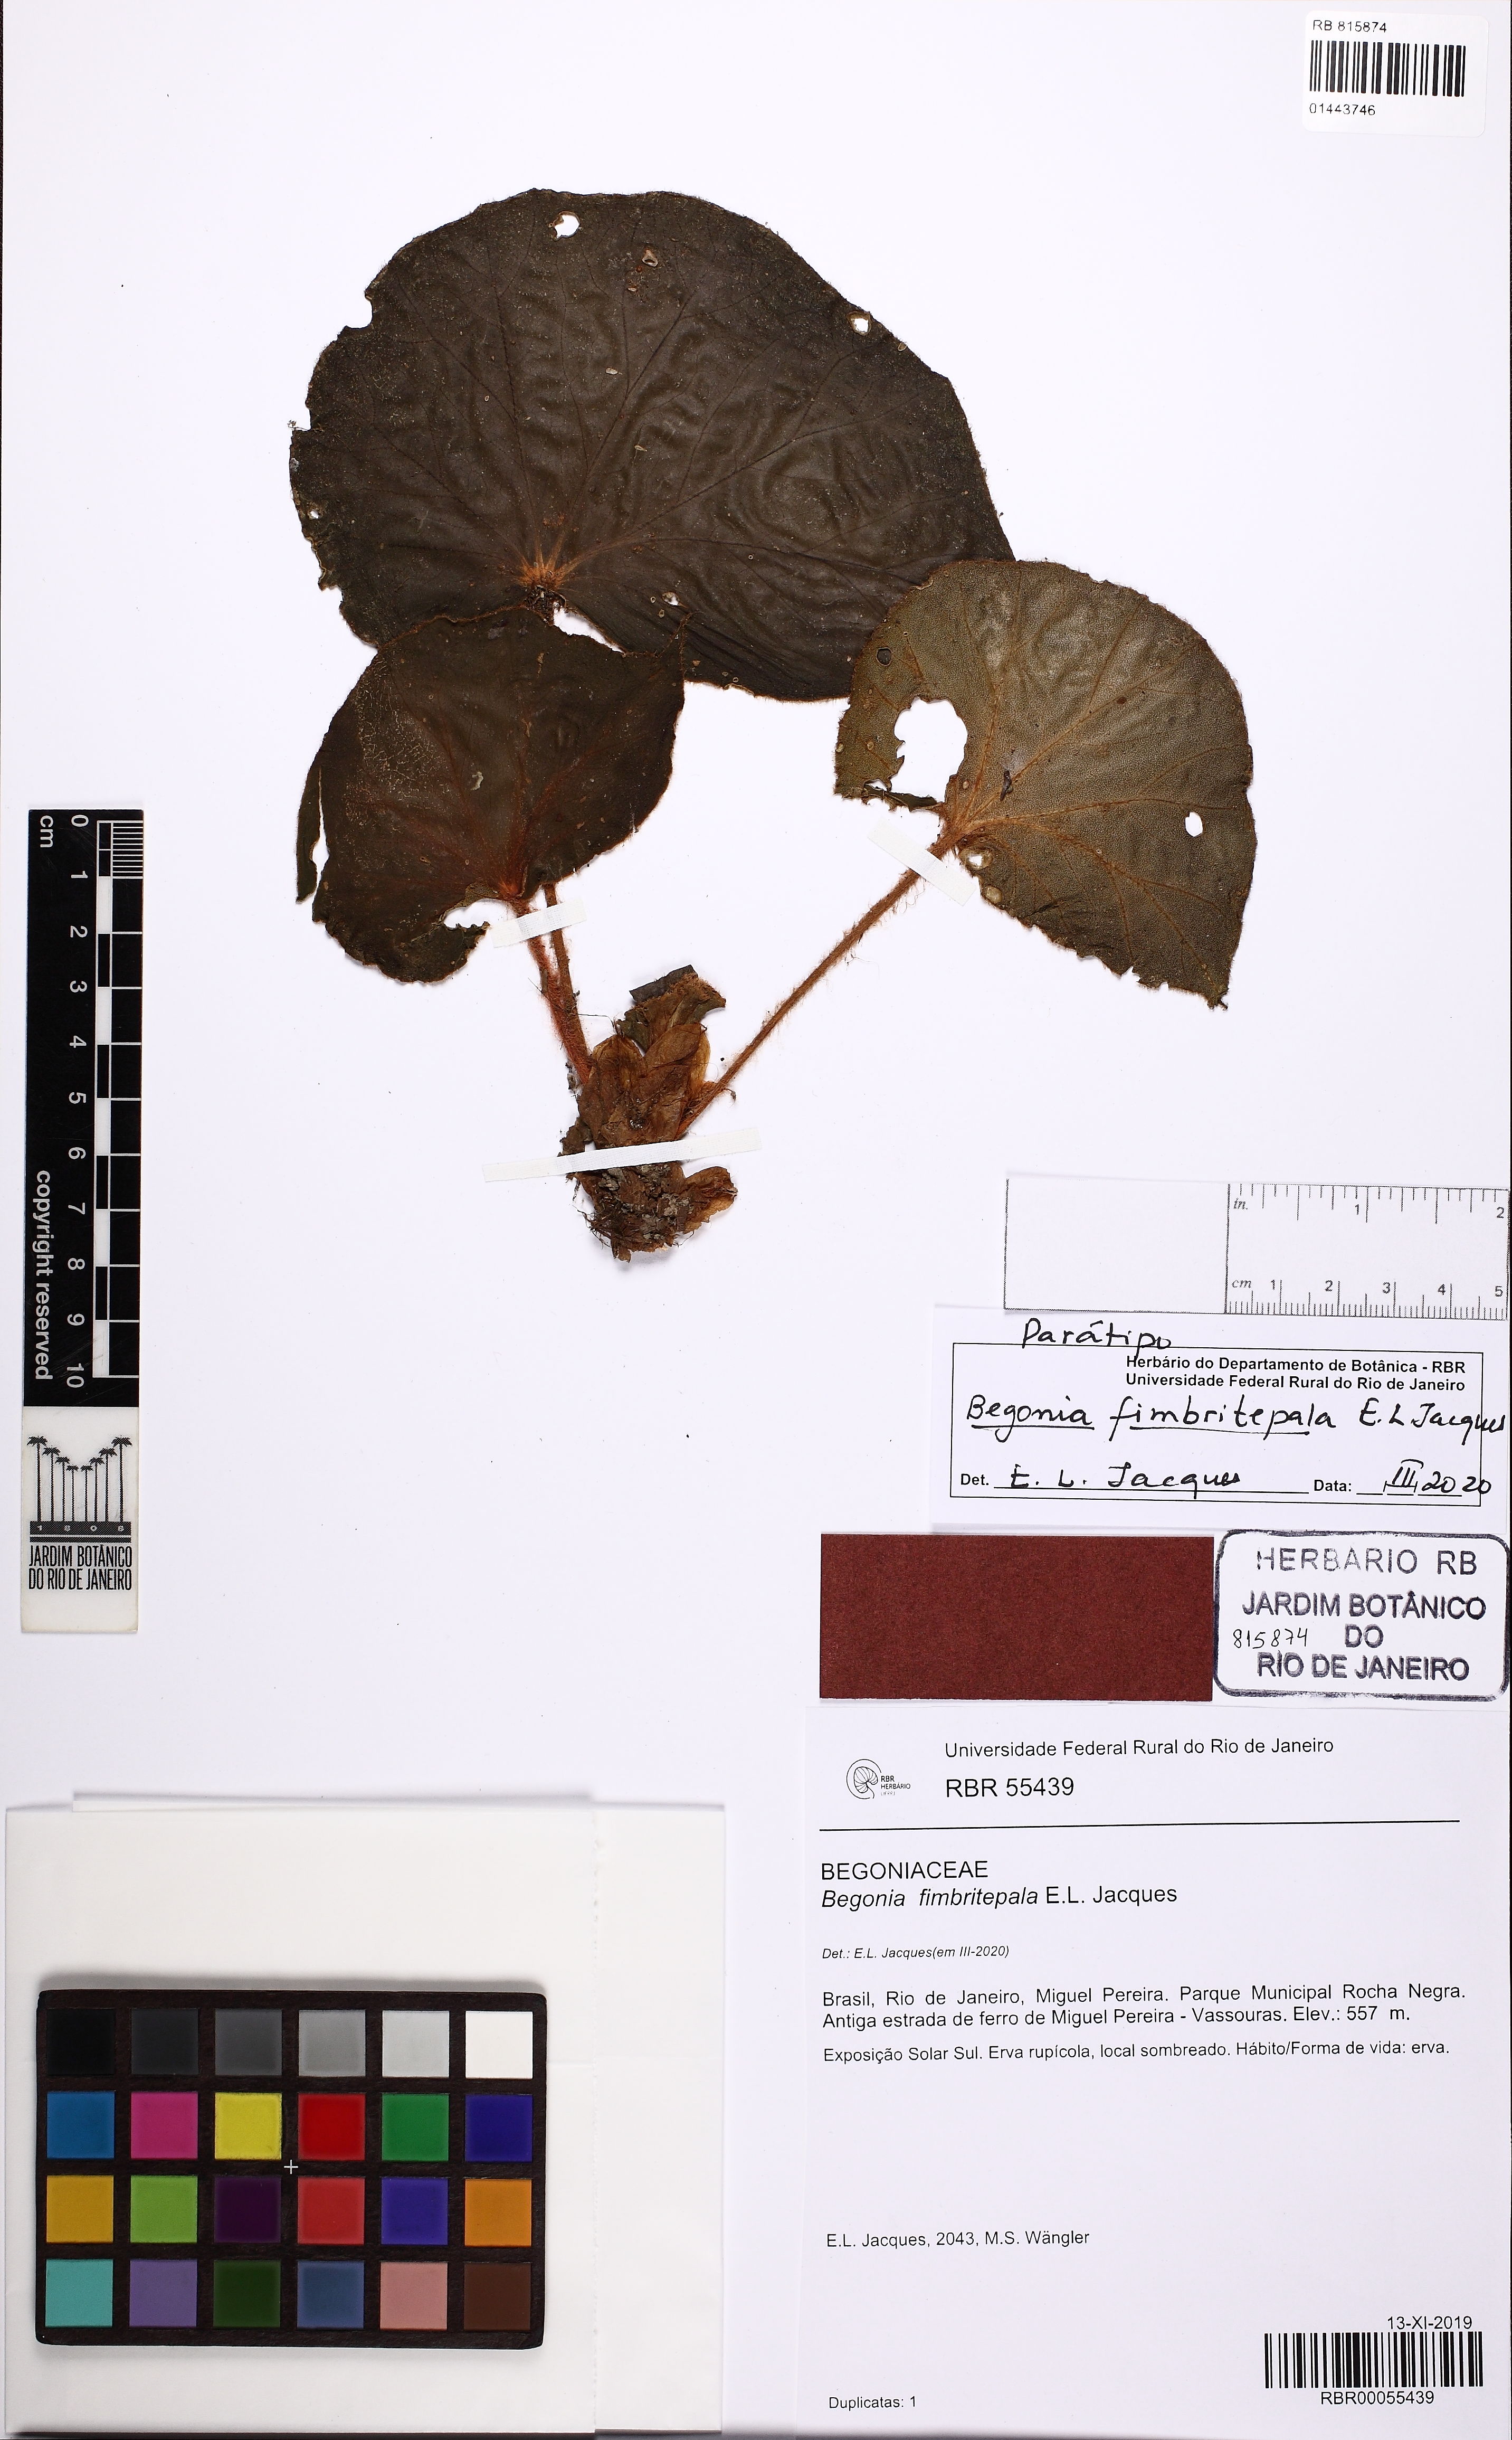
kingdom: Plantae
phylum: Tracheophyta
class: Magnoliopsida
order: Cucurbitales
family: Begoniaceae
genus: Begonia
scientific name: Begonia fimbritepala
